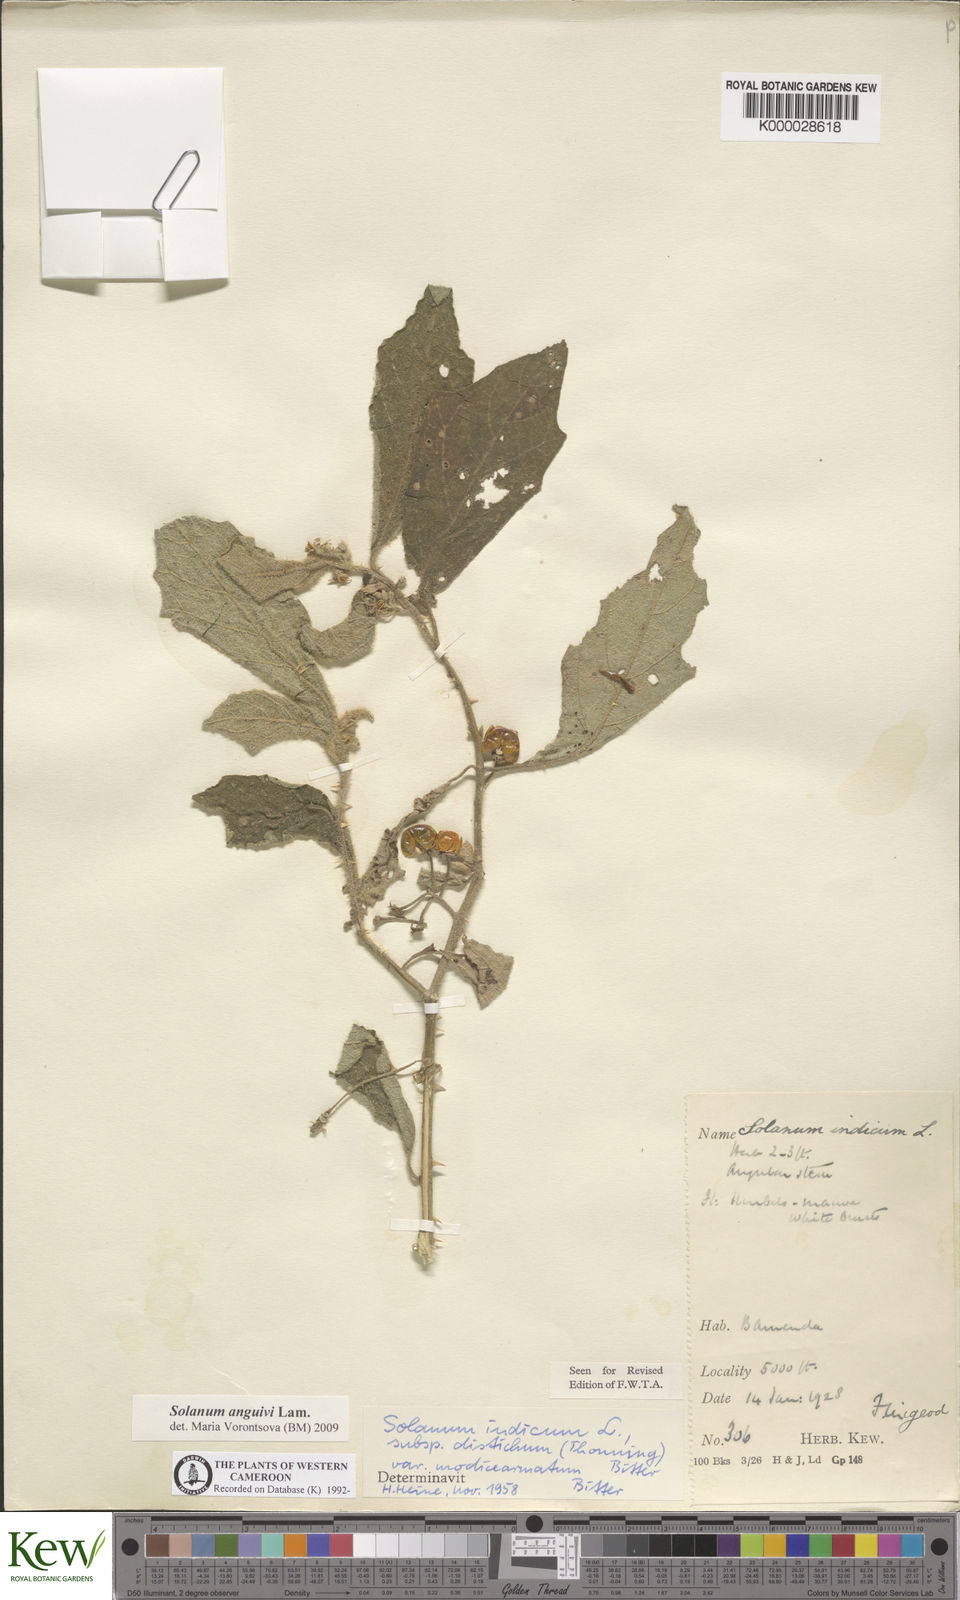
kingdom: Plantae
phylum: Tracheophyta
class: Magnoliopsida
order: Solanales
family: Solanaceae
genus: Solanum
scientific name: Solanum anguivi
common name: Forest bitterberry
